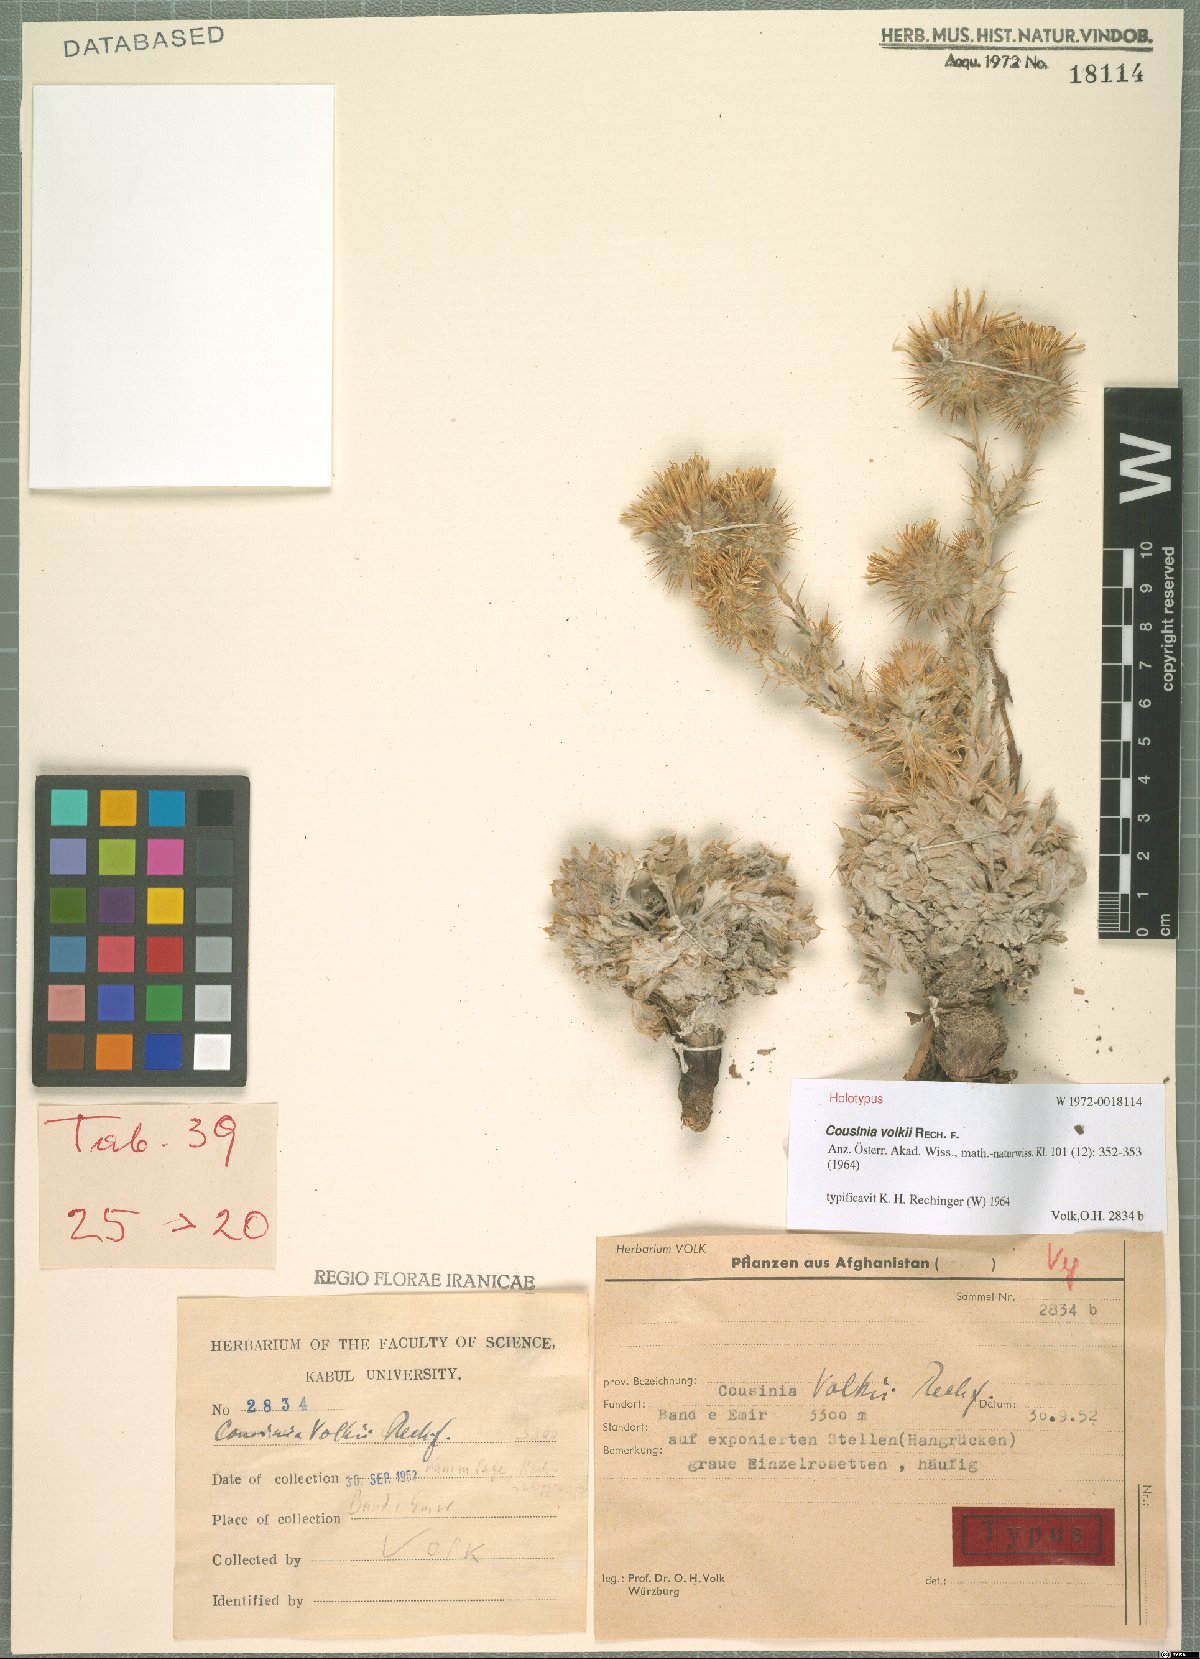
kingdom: Plantae
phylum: Tracheophyta
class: Magnoliopsida
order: Asterales
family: Asteraceae
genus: Cousinia
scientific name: Cousinia volkii
